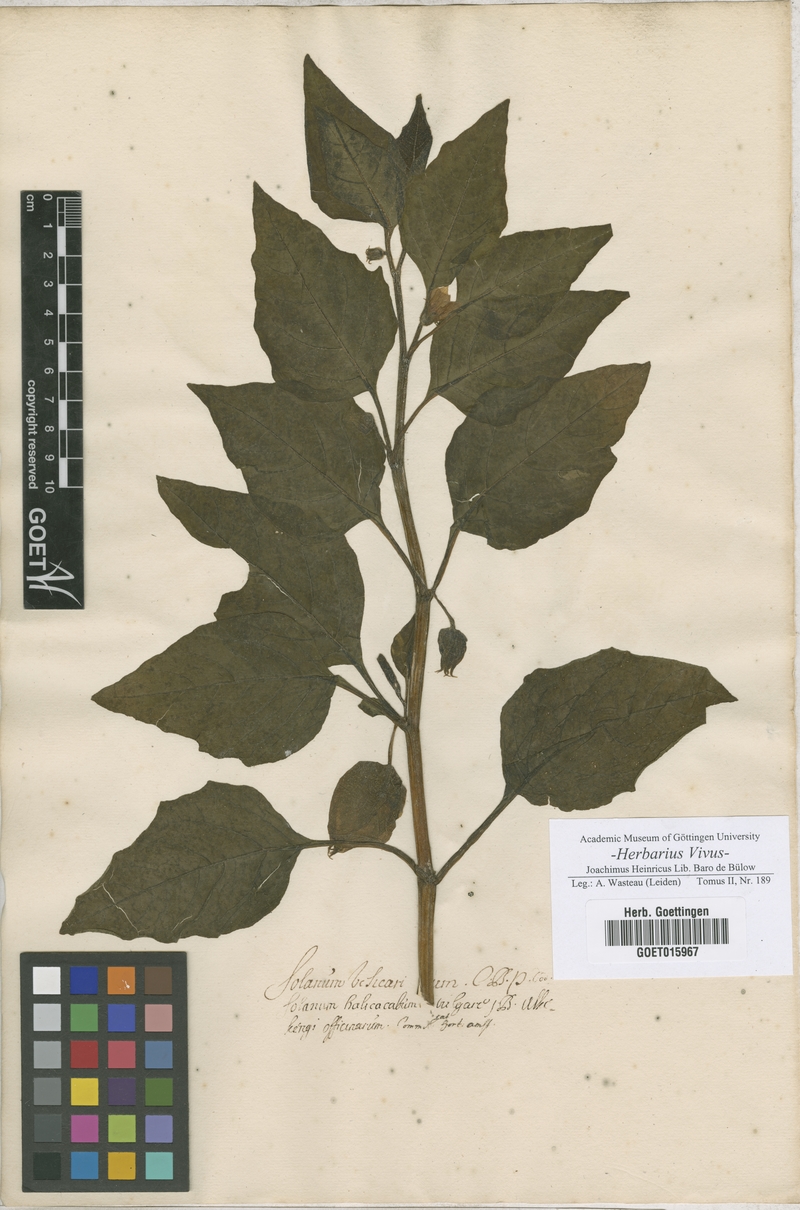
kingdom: Plantae
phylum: Tracheophyta
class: Magnoliopsida
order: Solanales
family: Solanaceae
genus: Solanum
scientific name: Solanum
